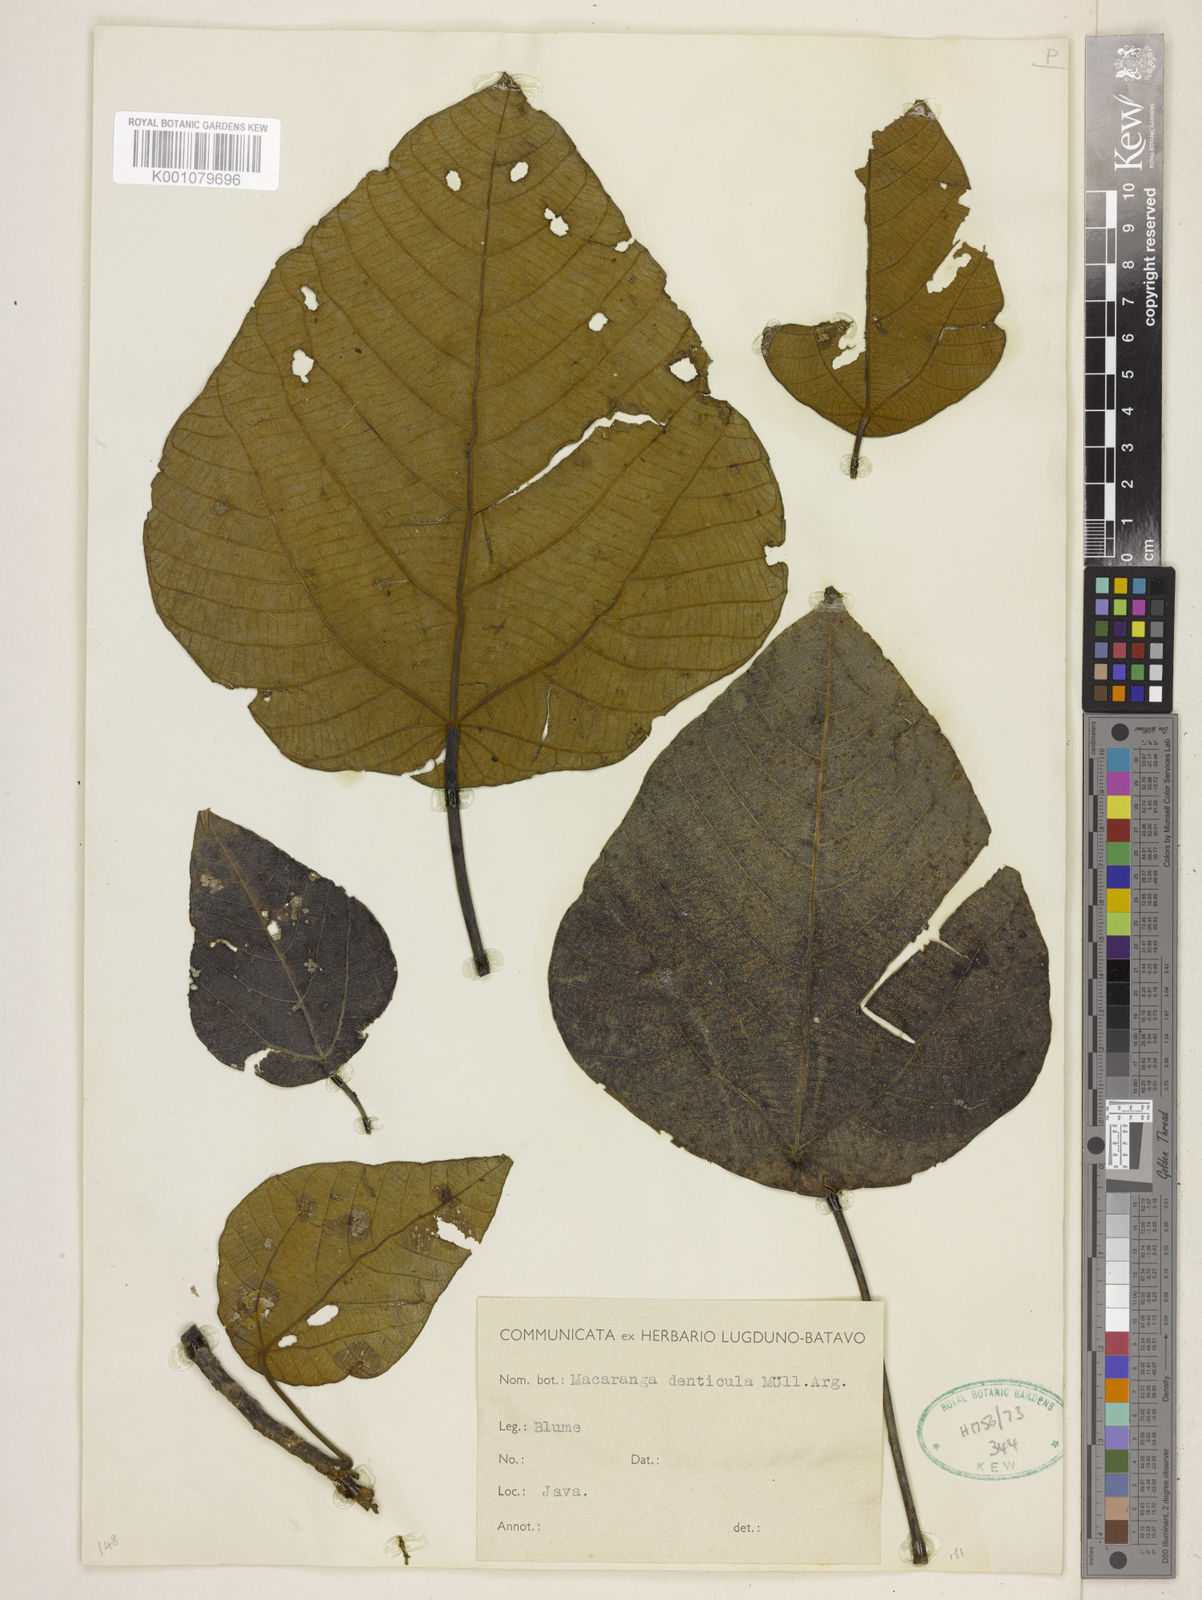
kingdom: Plantae
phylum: Tracheophyta
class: Magnoliopsida
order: Malpighiales
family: Euphorbiaceae
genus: Macaranga
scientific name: Macaranga
